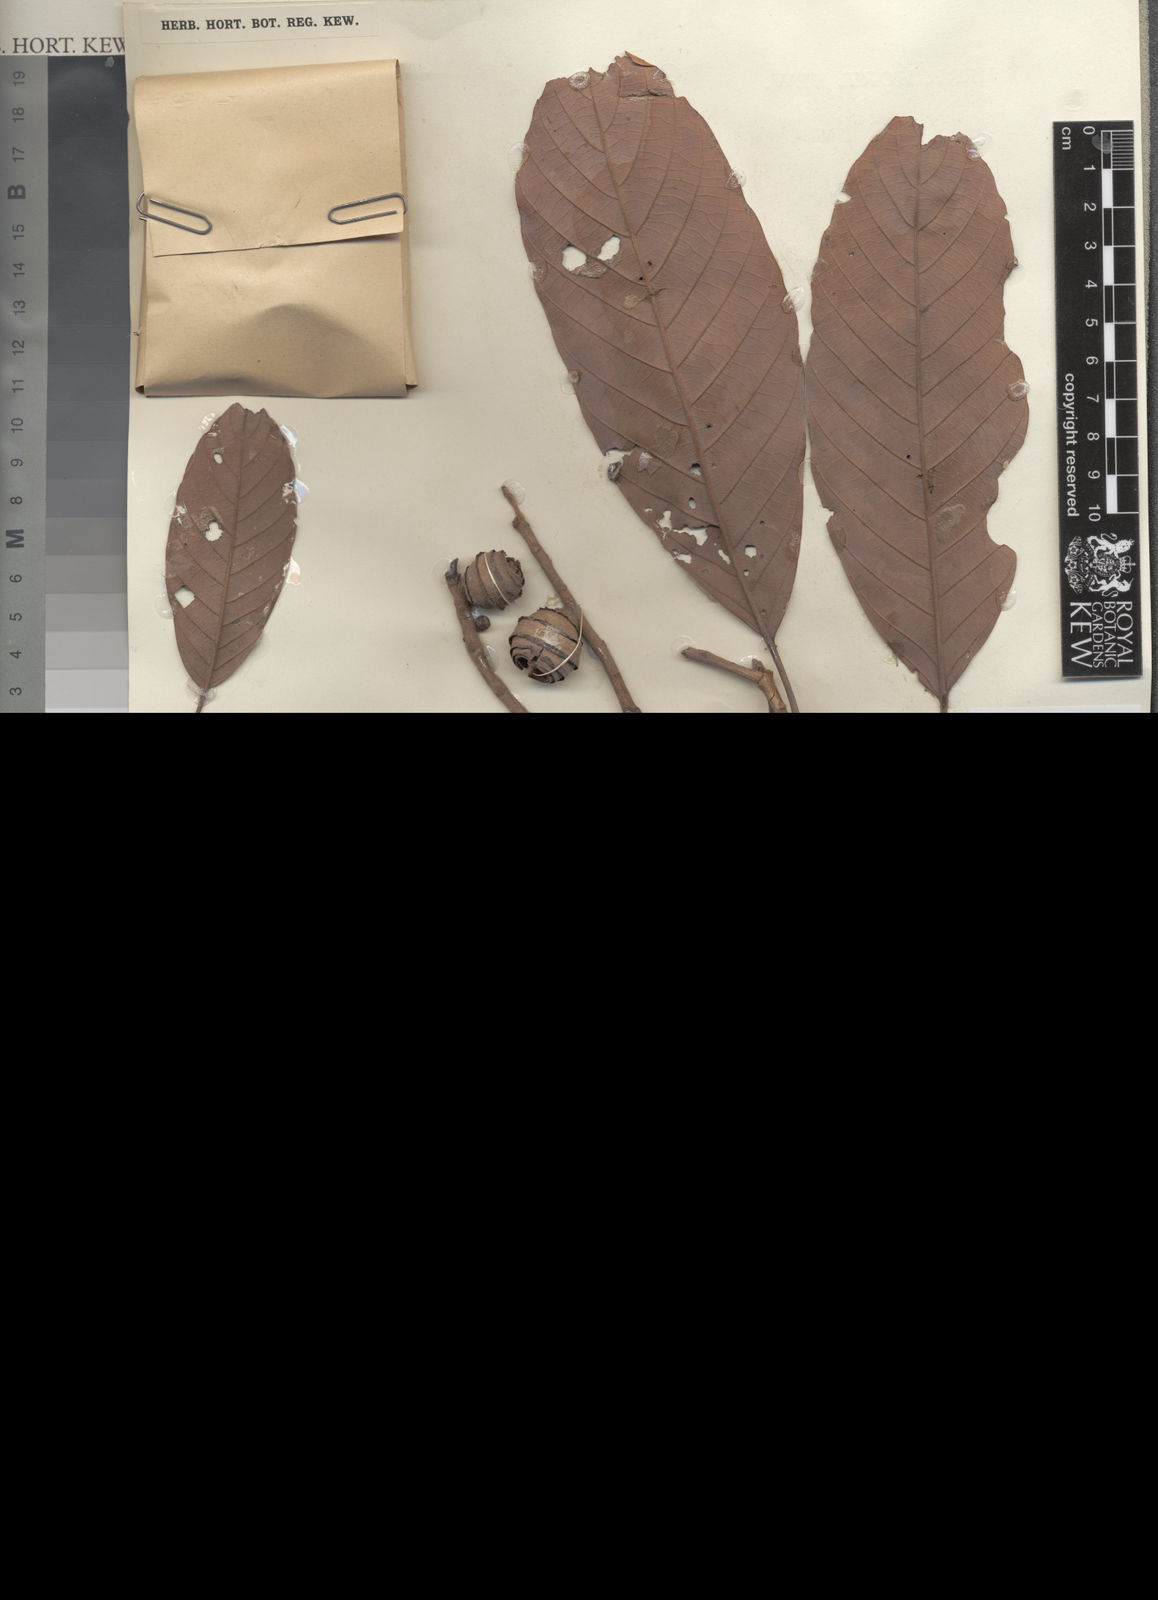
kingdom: Plantae
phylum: Tracheophyta
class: Magnoliopsida
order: Fagales
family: Fagaceae
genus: Quercus
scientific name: Quercus gaharuensis
